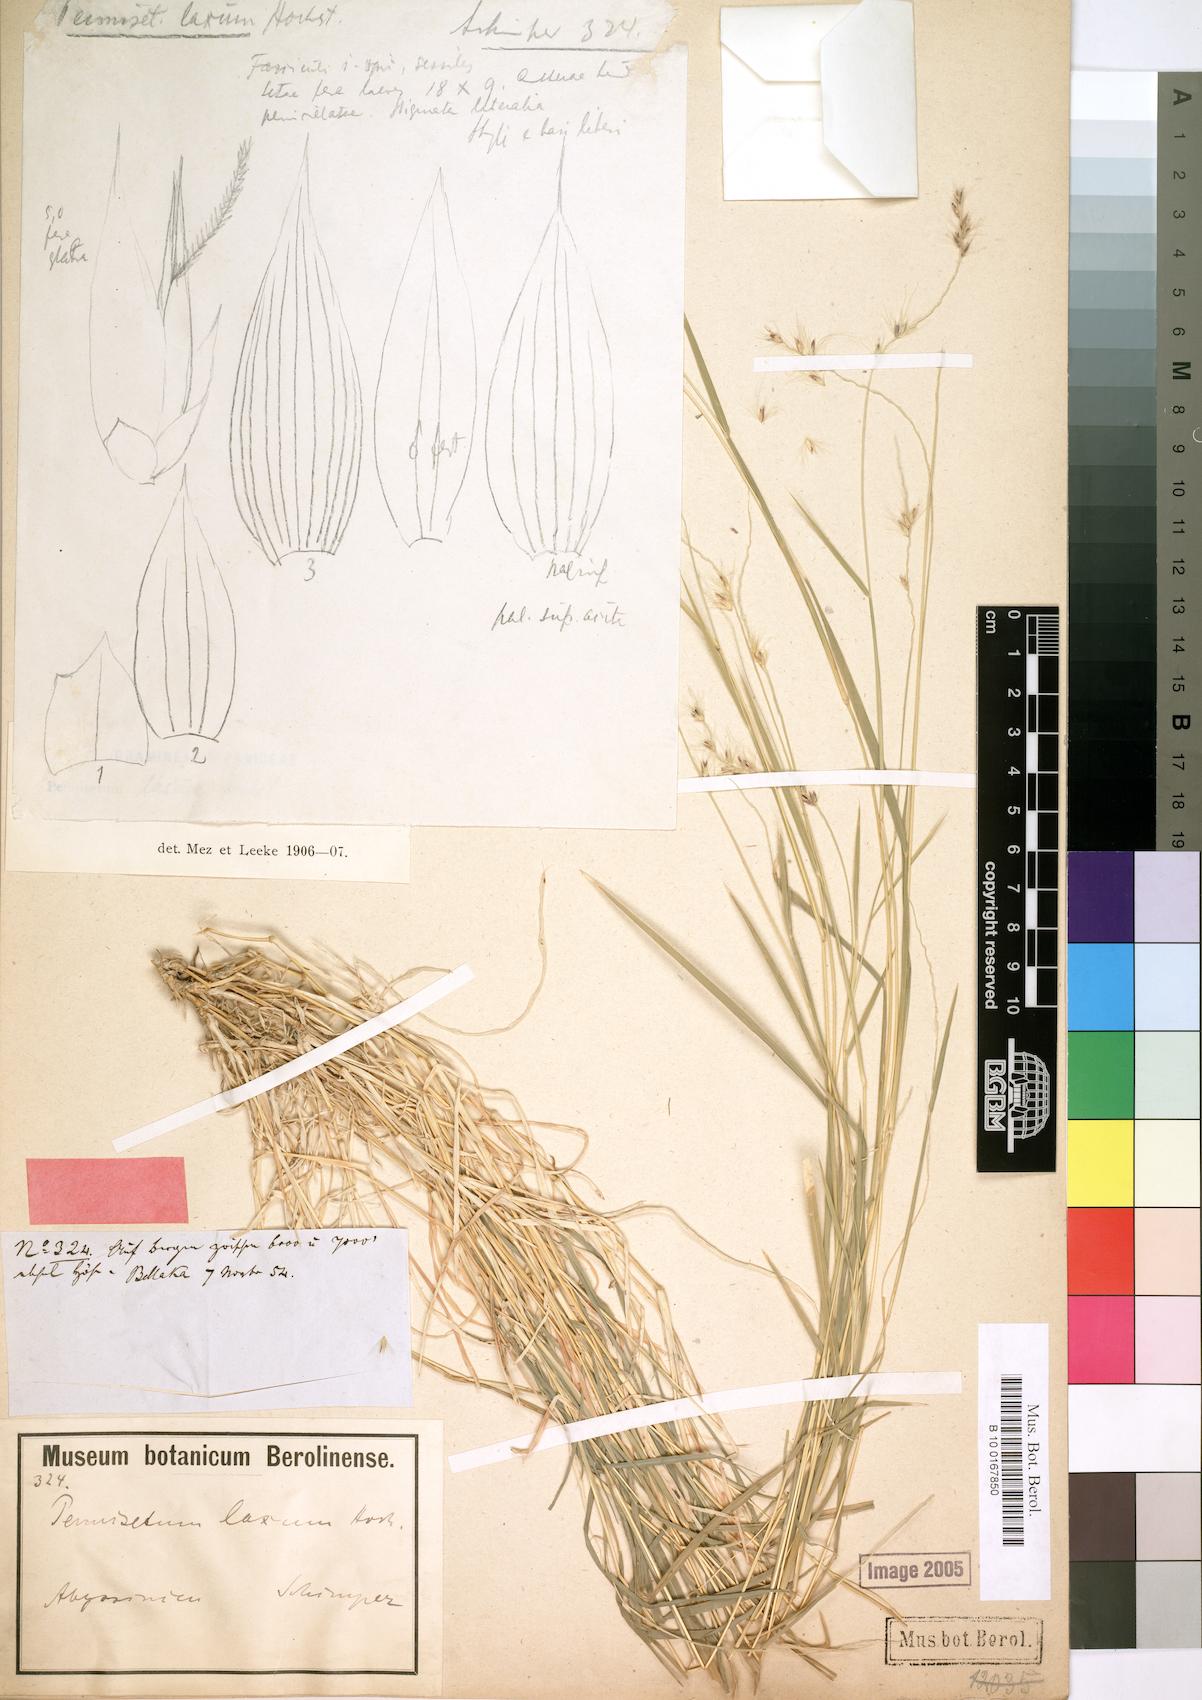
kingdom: Plantae
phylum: Tracheophyta
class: Liliopsida
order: Poales
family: Poaceae
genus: Cenchrus
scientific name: Cenchrus glaucifolius
